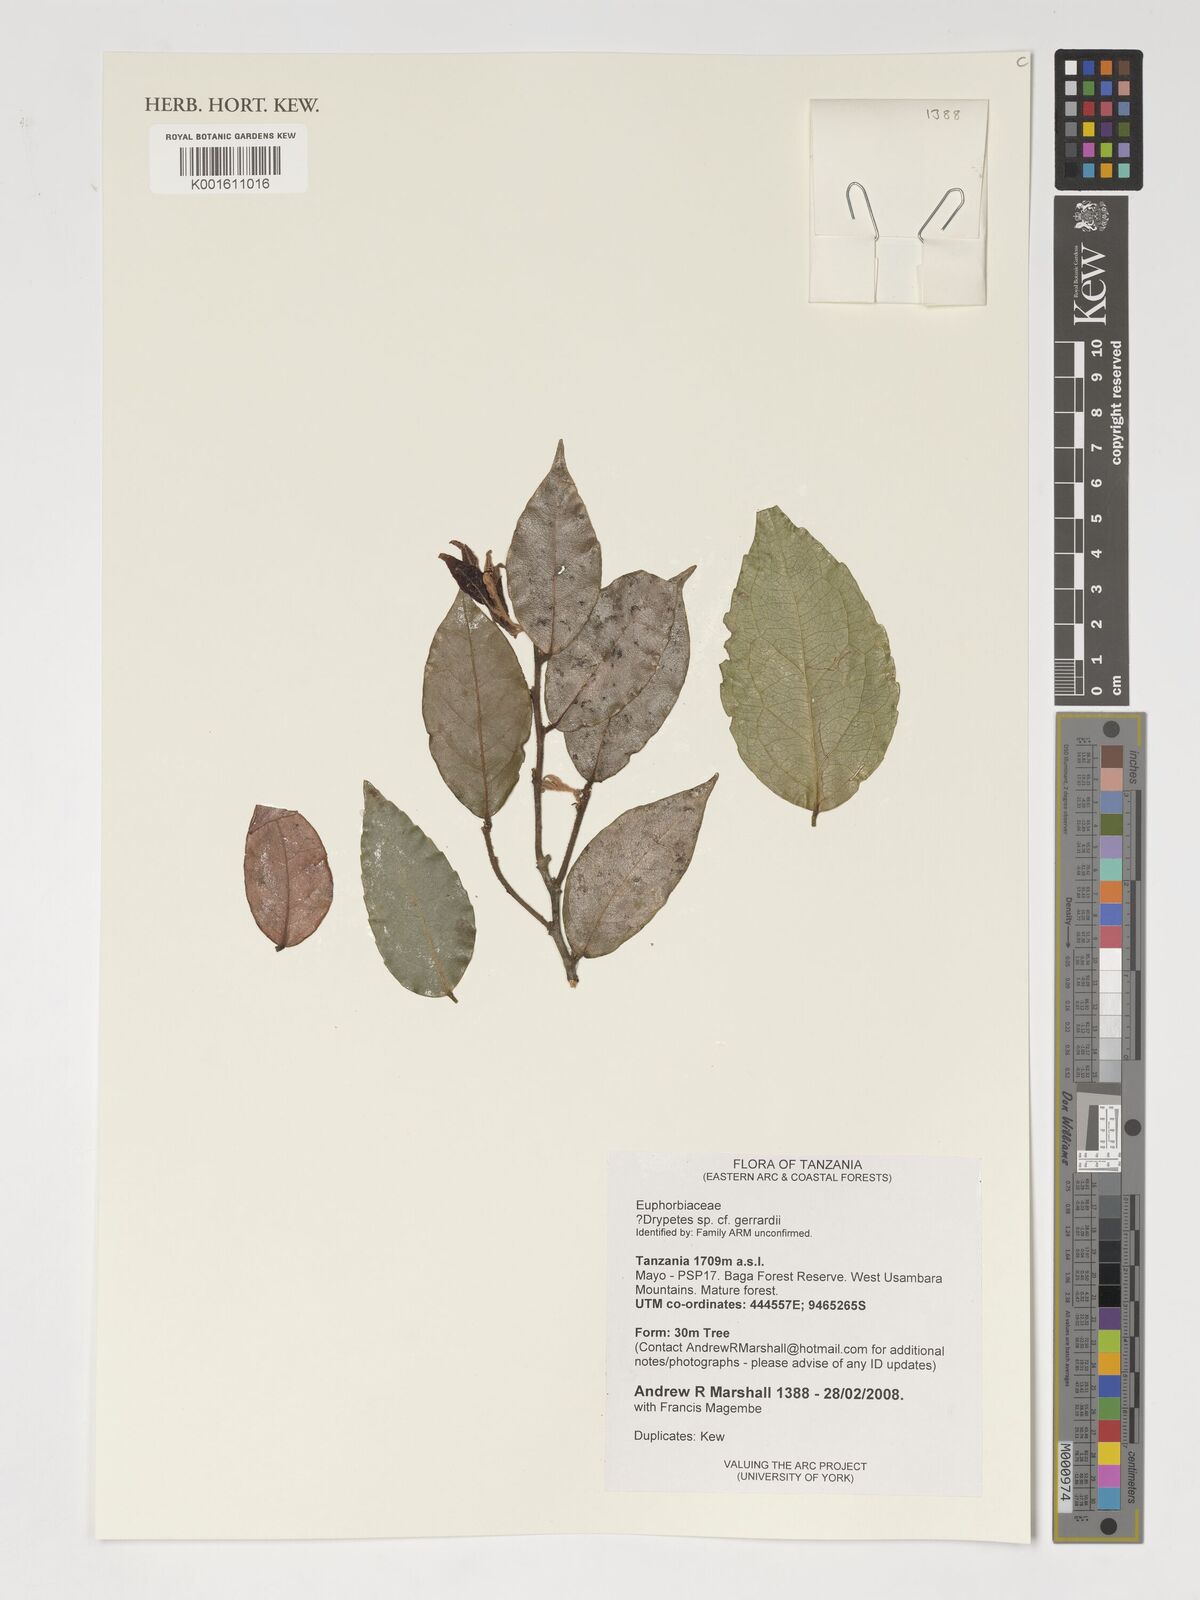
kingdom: Plantae
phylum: Tracheophyta
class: Magnoliopsida
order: Malpighiales
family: Putranjivaceae
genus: Drypetes
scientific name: Drypetes gerrardii
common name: Forest ironplum
